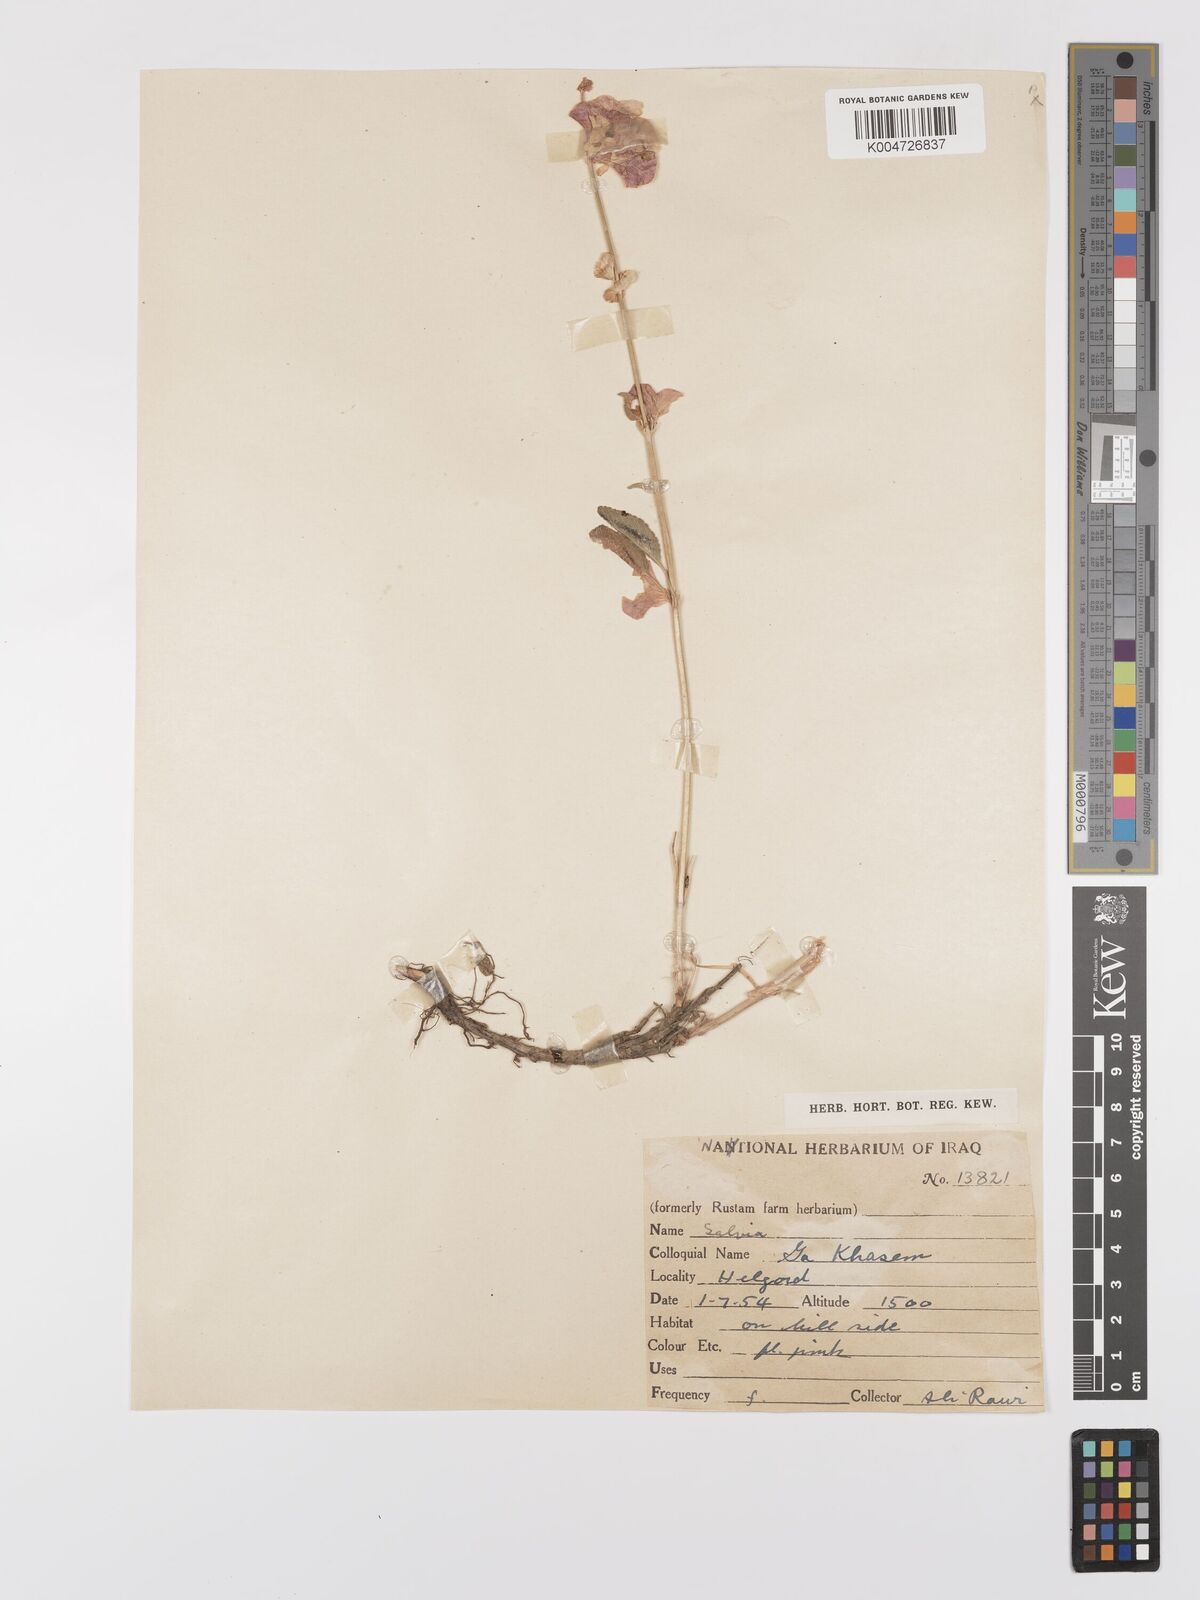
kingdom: Plantae
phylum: Tracheophyta
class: Magnoliopsida
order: Lamiales
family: Lamiaceae
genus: Salvia
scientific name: Salvia
